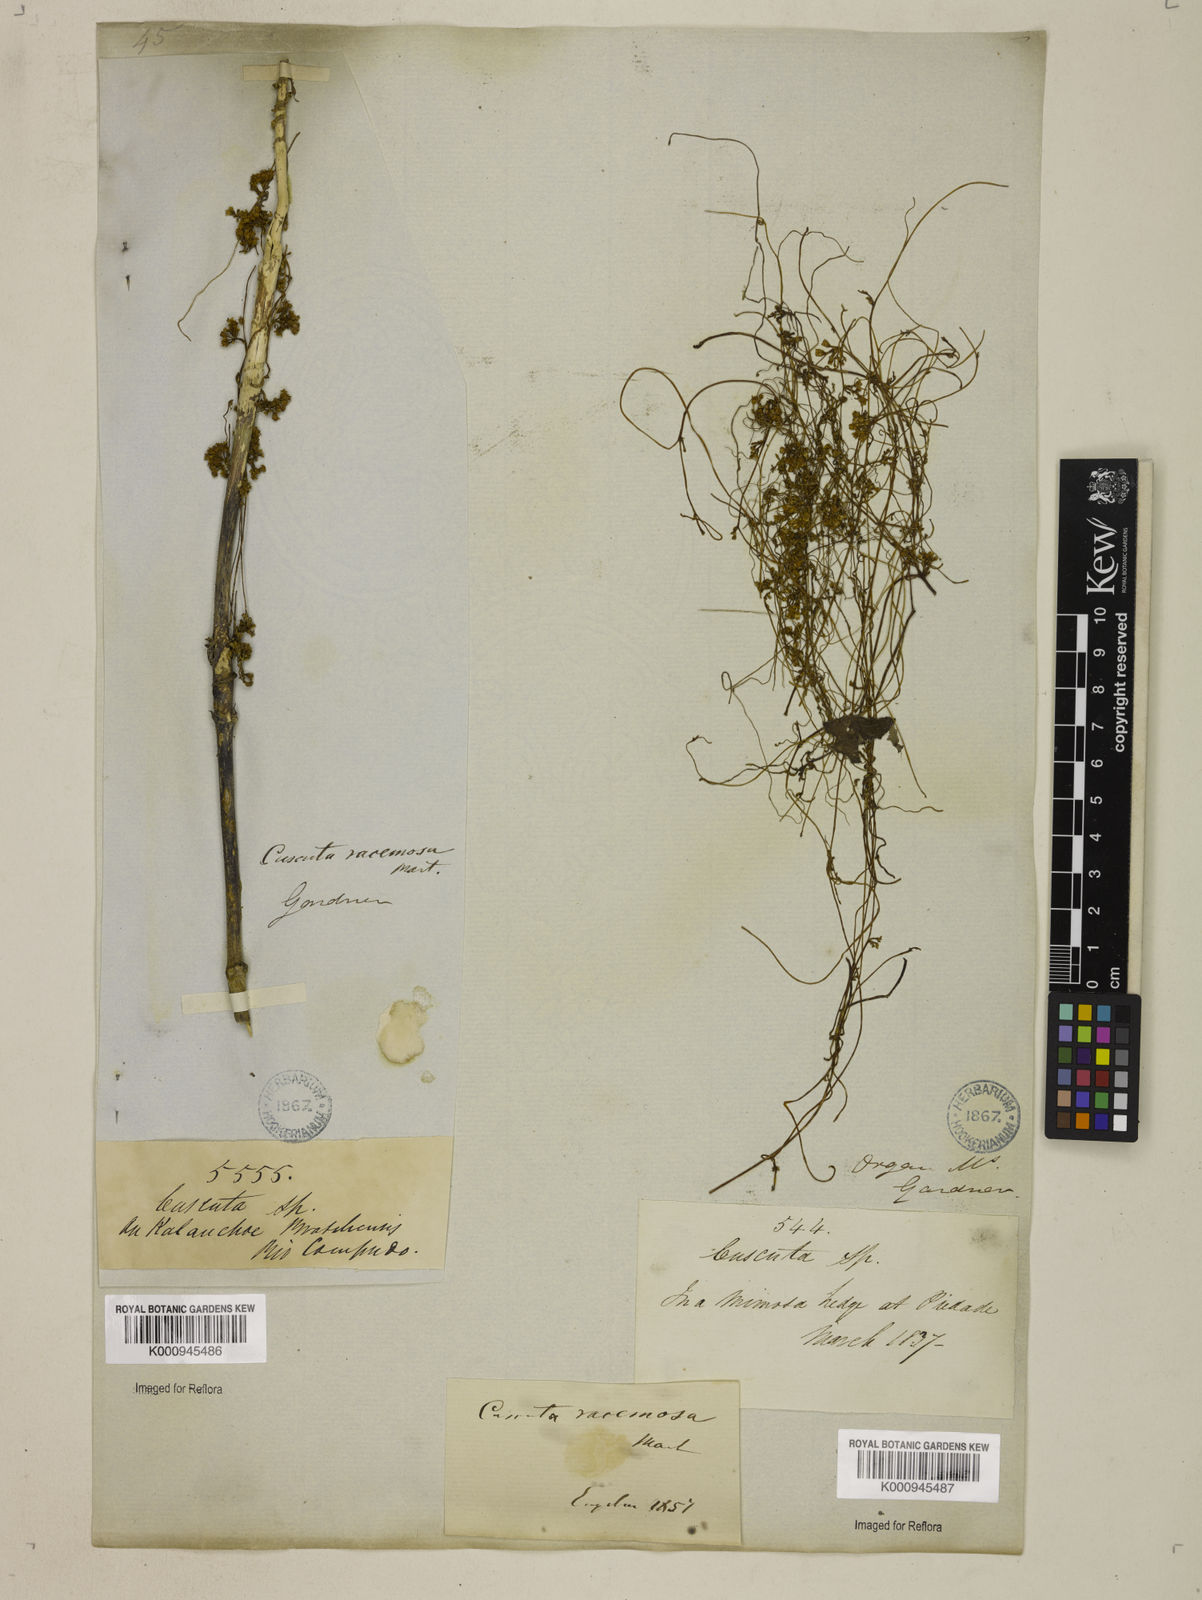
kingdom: Plantae
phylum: Tracheophyta
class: Magnoliopsida
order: Solanales
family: Convolvulaceae
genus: Cuscuta
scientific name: Cuscuta racemosa
